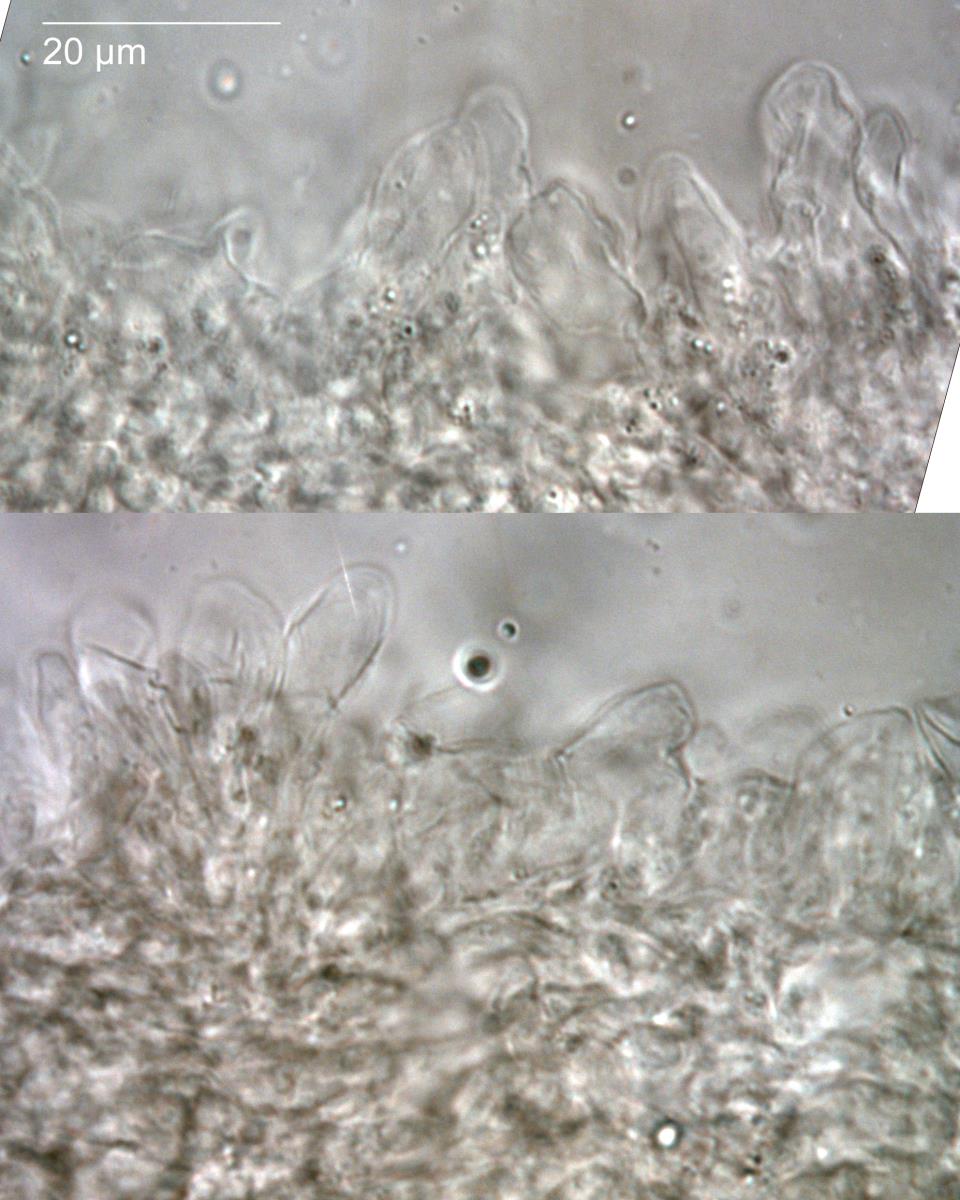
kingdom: Fungi
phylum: Basidiomycota
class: Agaricomycetes
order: Agaricales
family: Mycenaceae
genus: Mycena
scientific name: Mycena fuscovinacea
